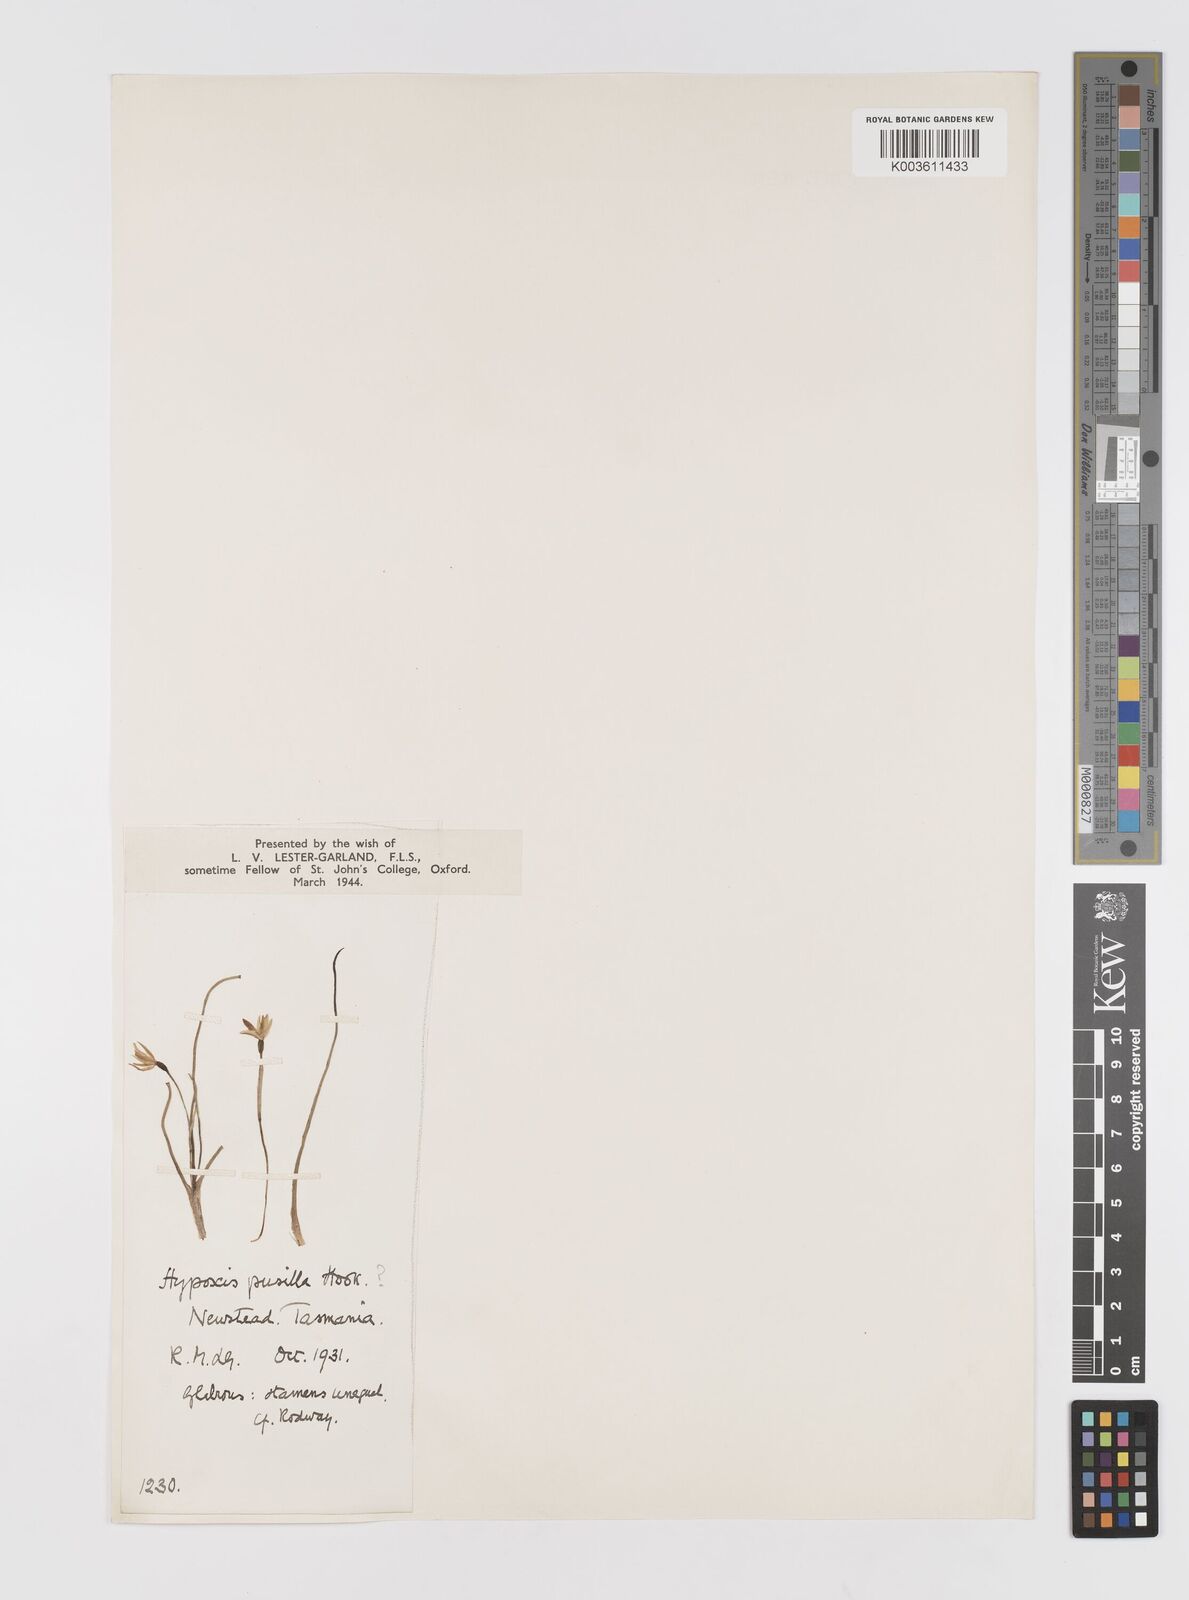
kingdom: Plantae
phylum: Tracheophyta
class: Liliopsida
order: Asparagales
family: Hypoxidaceae
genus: Pauridia
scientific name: Pauridia glabella
